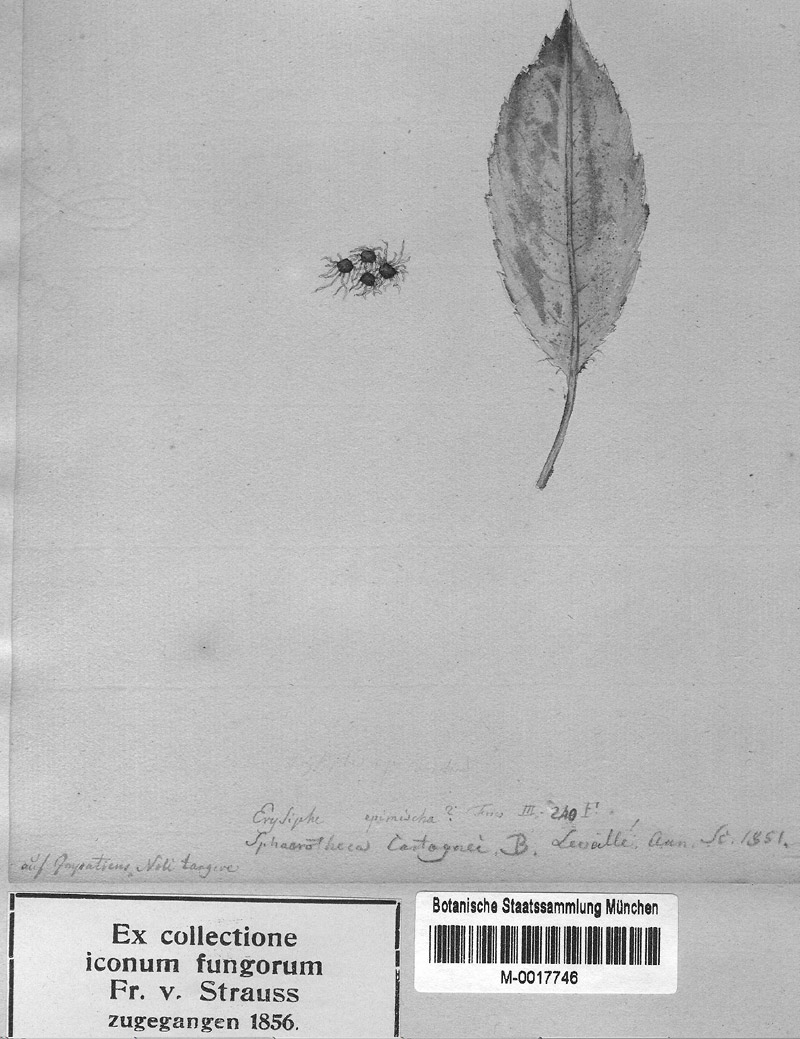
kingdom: Plantae
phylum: Tracheophyta
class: Magnoliopsida
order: Ericales
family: Balsaminaceae
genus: Impatiens
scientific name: Impatiens noli-tangere
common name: Touch-me-not balsam
